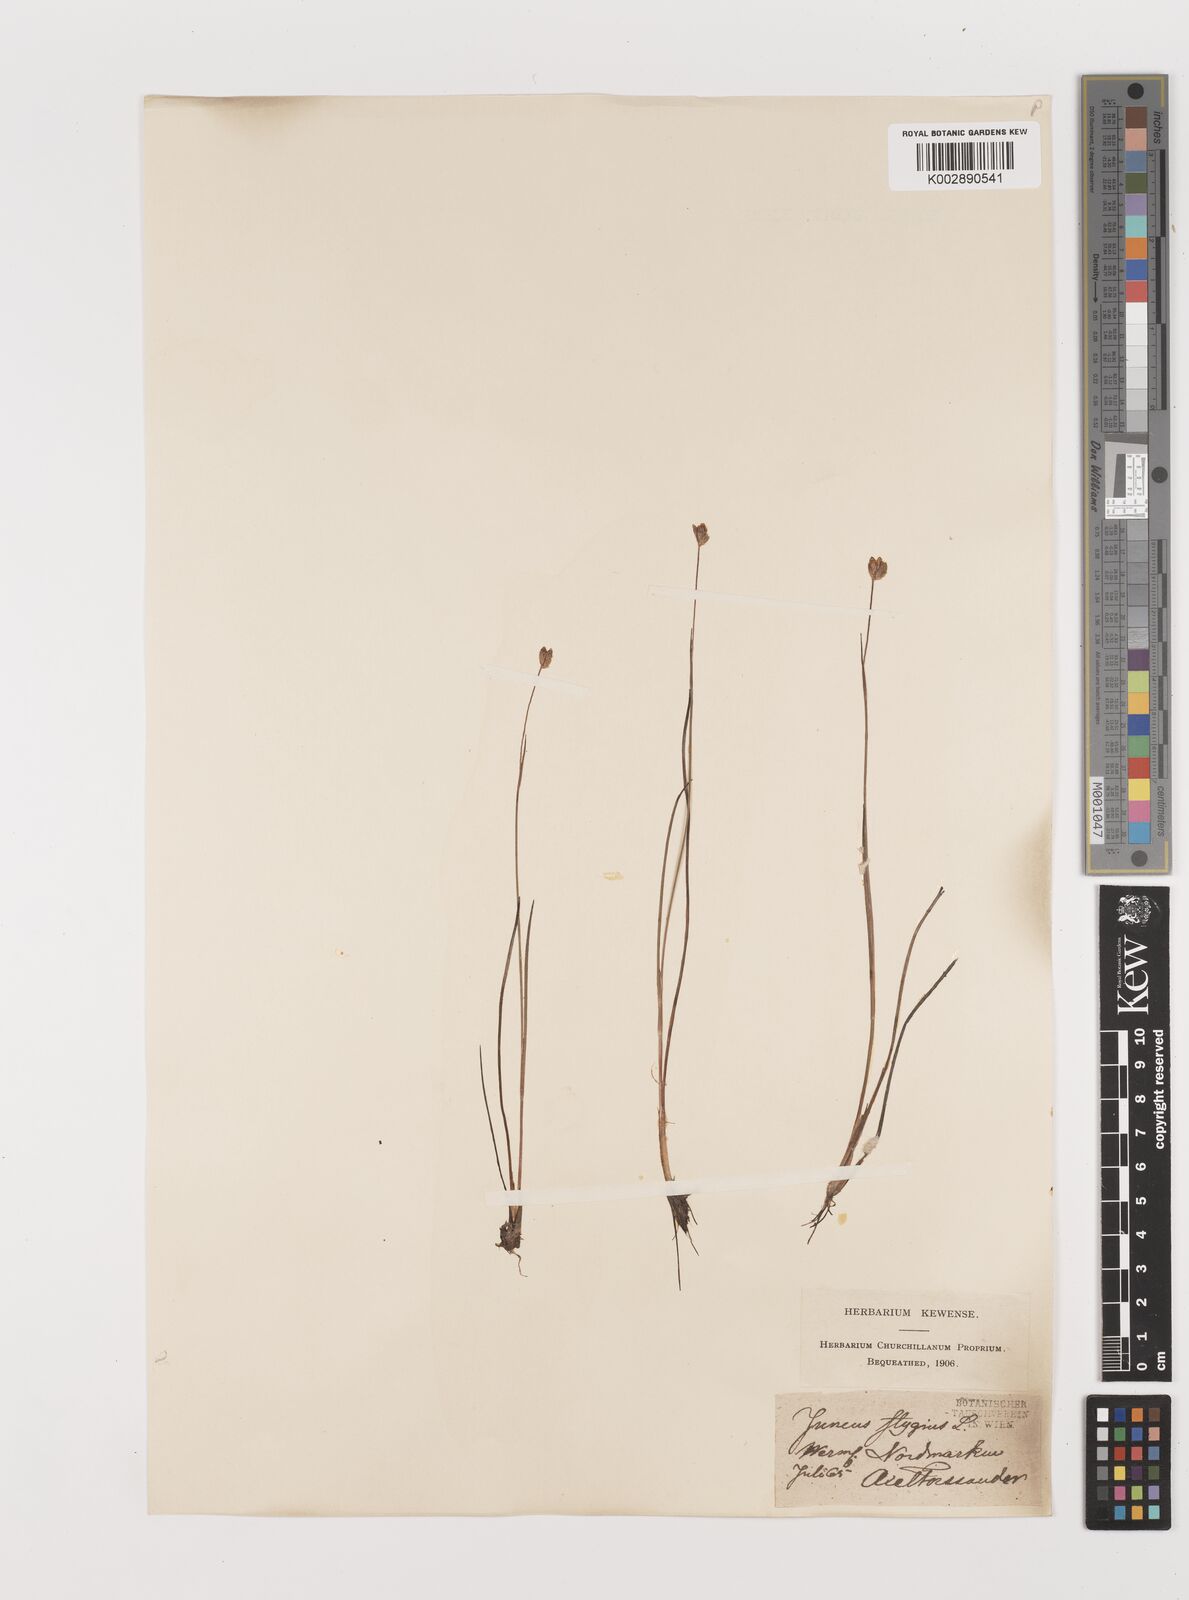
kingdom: Plantae
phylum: Tracheophyta
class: Liliopsida
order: Poales
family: Juncaceae
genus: Juncus
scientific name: Juncus stygius
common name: Bog rush
